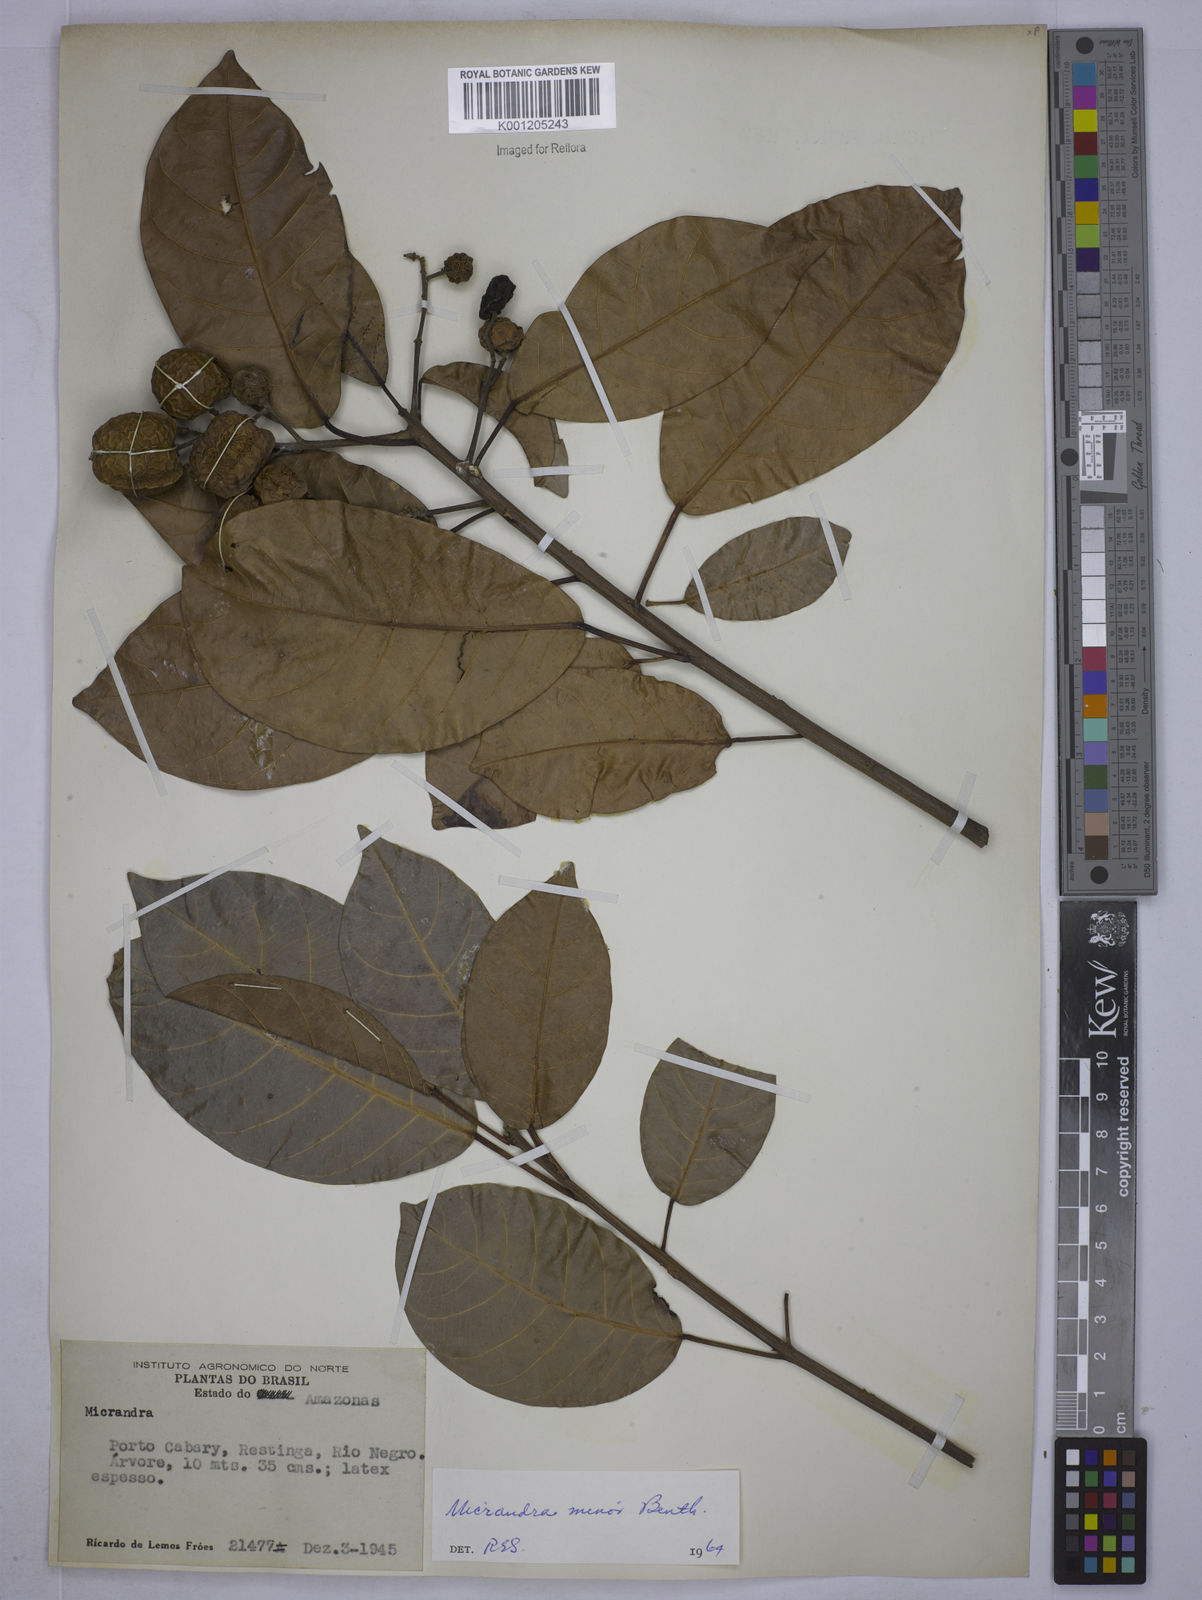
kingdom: Plantae
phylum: Tracheophyta
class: Magnoliopsida
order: Malpighiales
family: Euphorbiaceae
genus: Micrandra
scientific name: Micrandra minor
